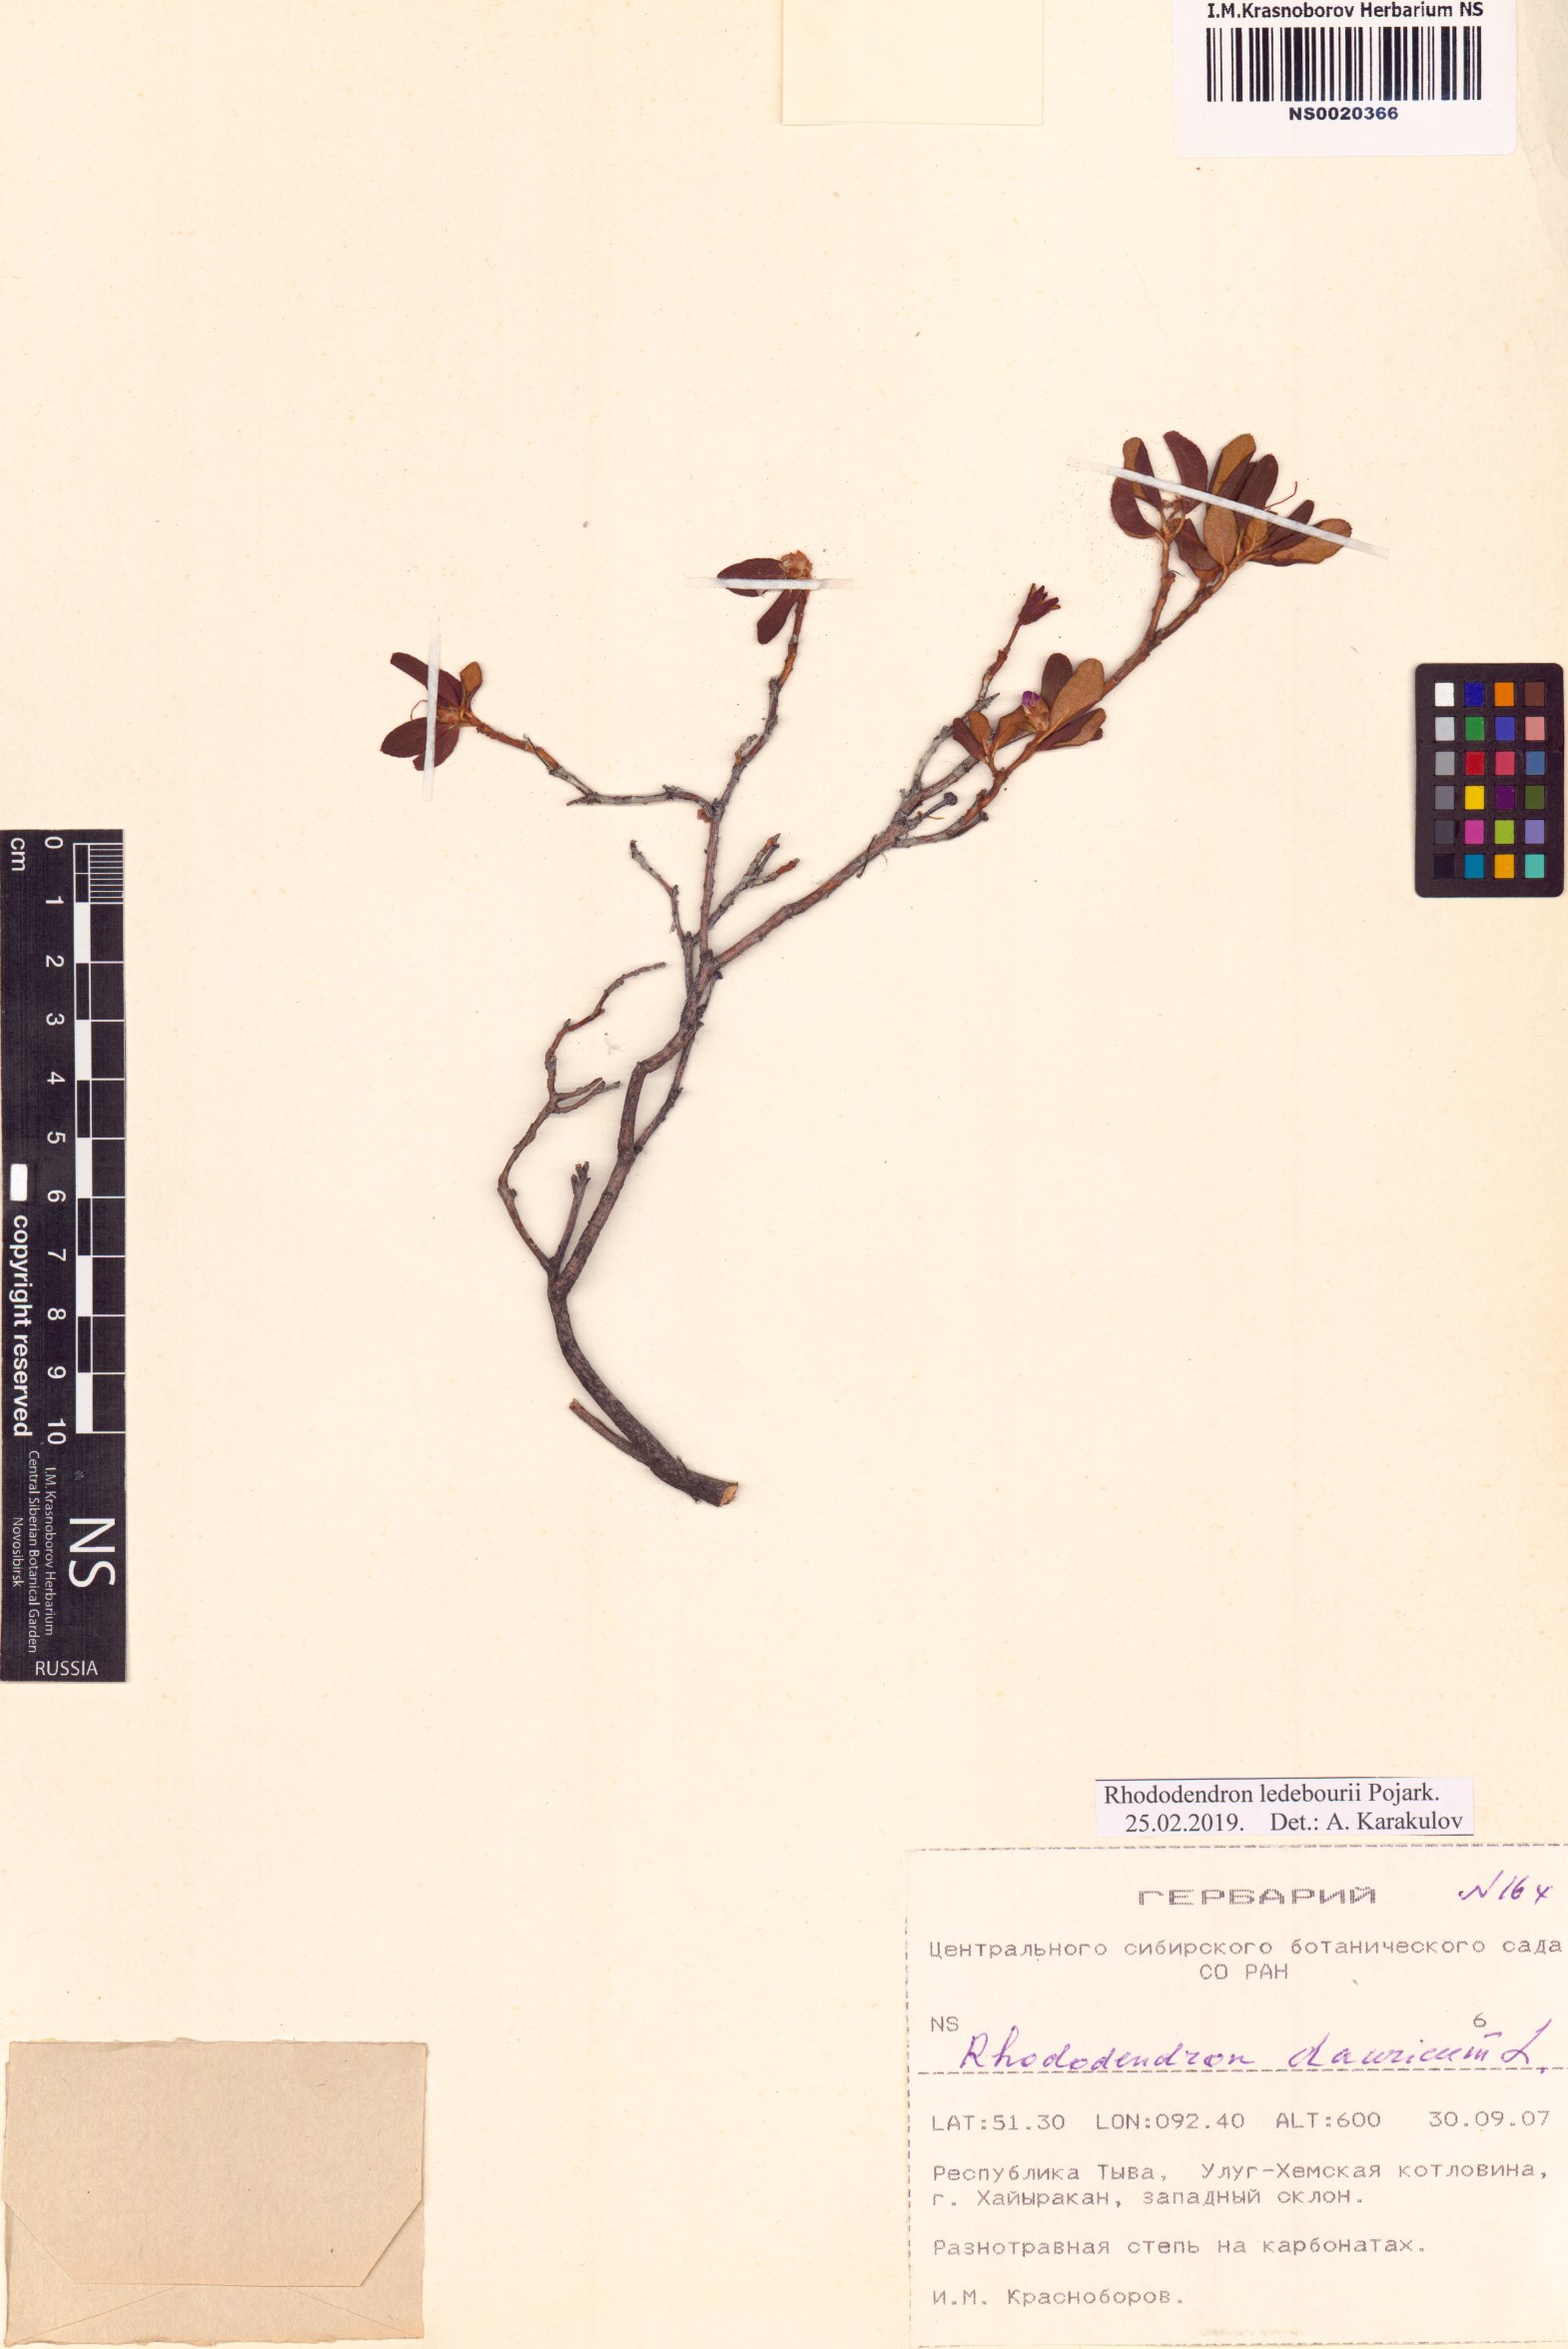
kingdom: Plantae
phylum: Tracheophyta
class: Magnoliopsida
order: Ericales
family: Ericaceae
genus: Rhododendron
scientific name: Rhododendron dauricum
